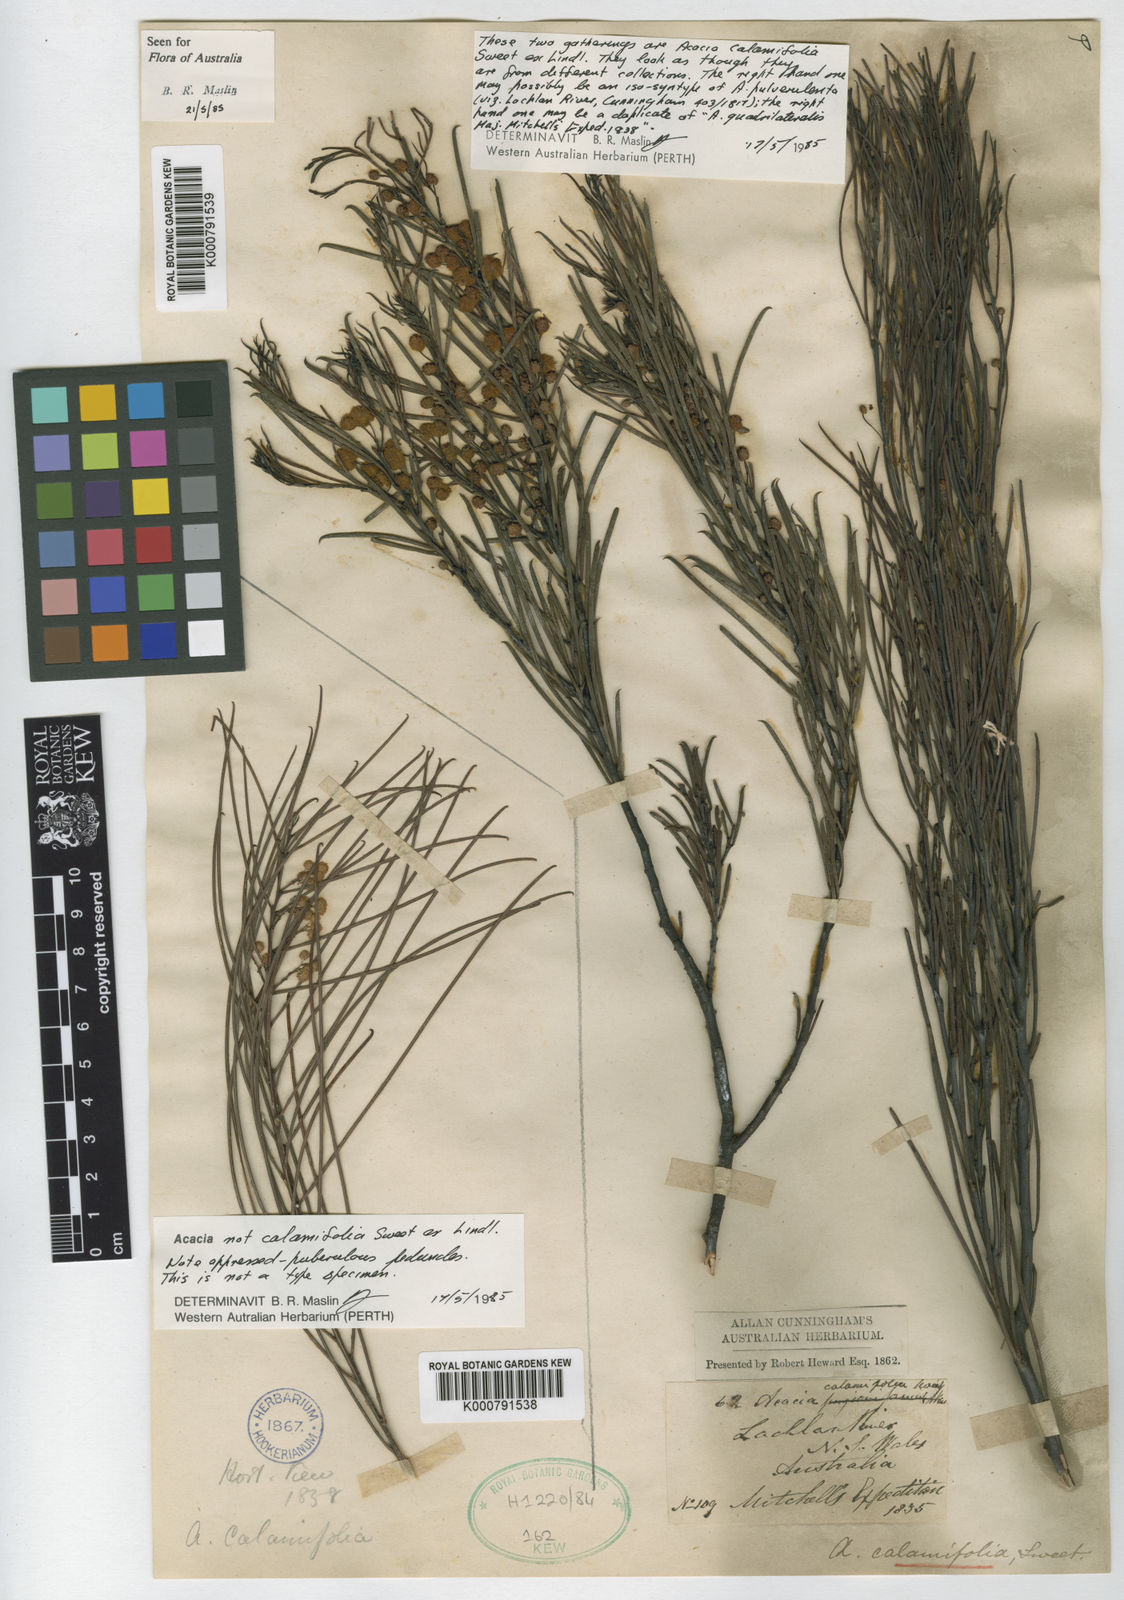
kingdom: Plantae
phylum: Tracheophyta
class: Magnoliopsida
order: Fabales
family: Fabaceae
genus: Acacia
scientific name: Acacia calamifolia
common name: Broom wattle
